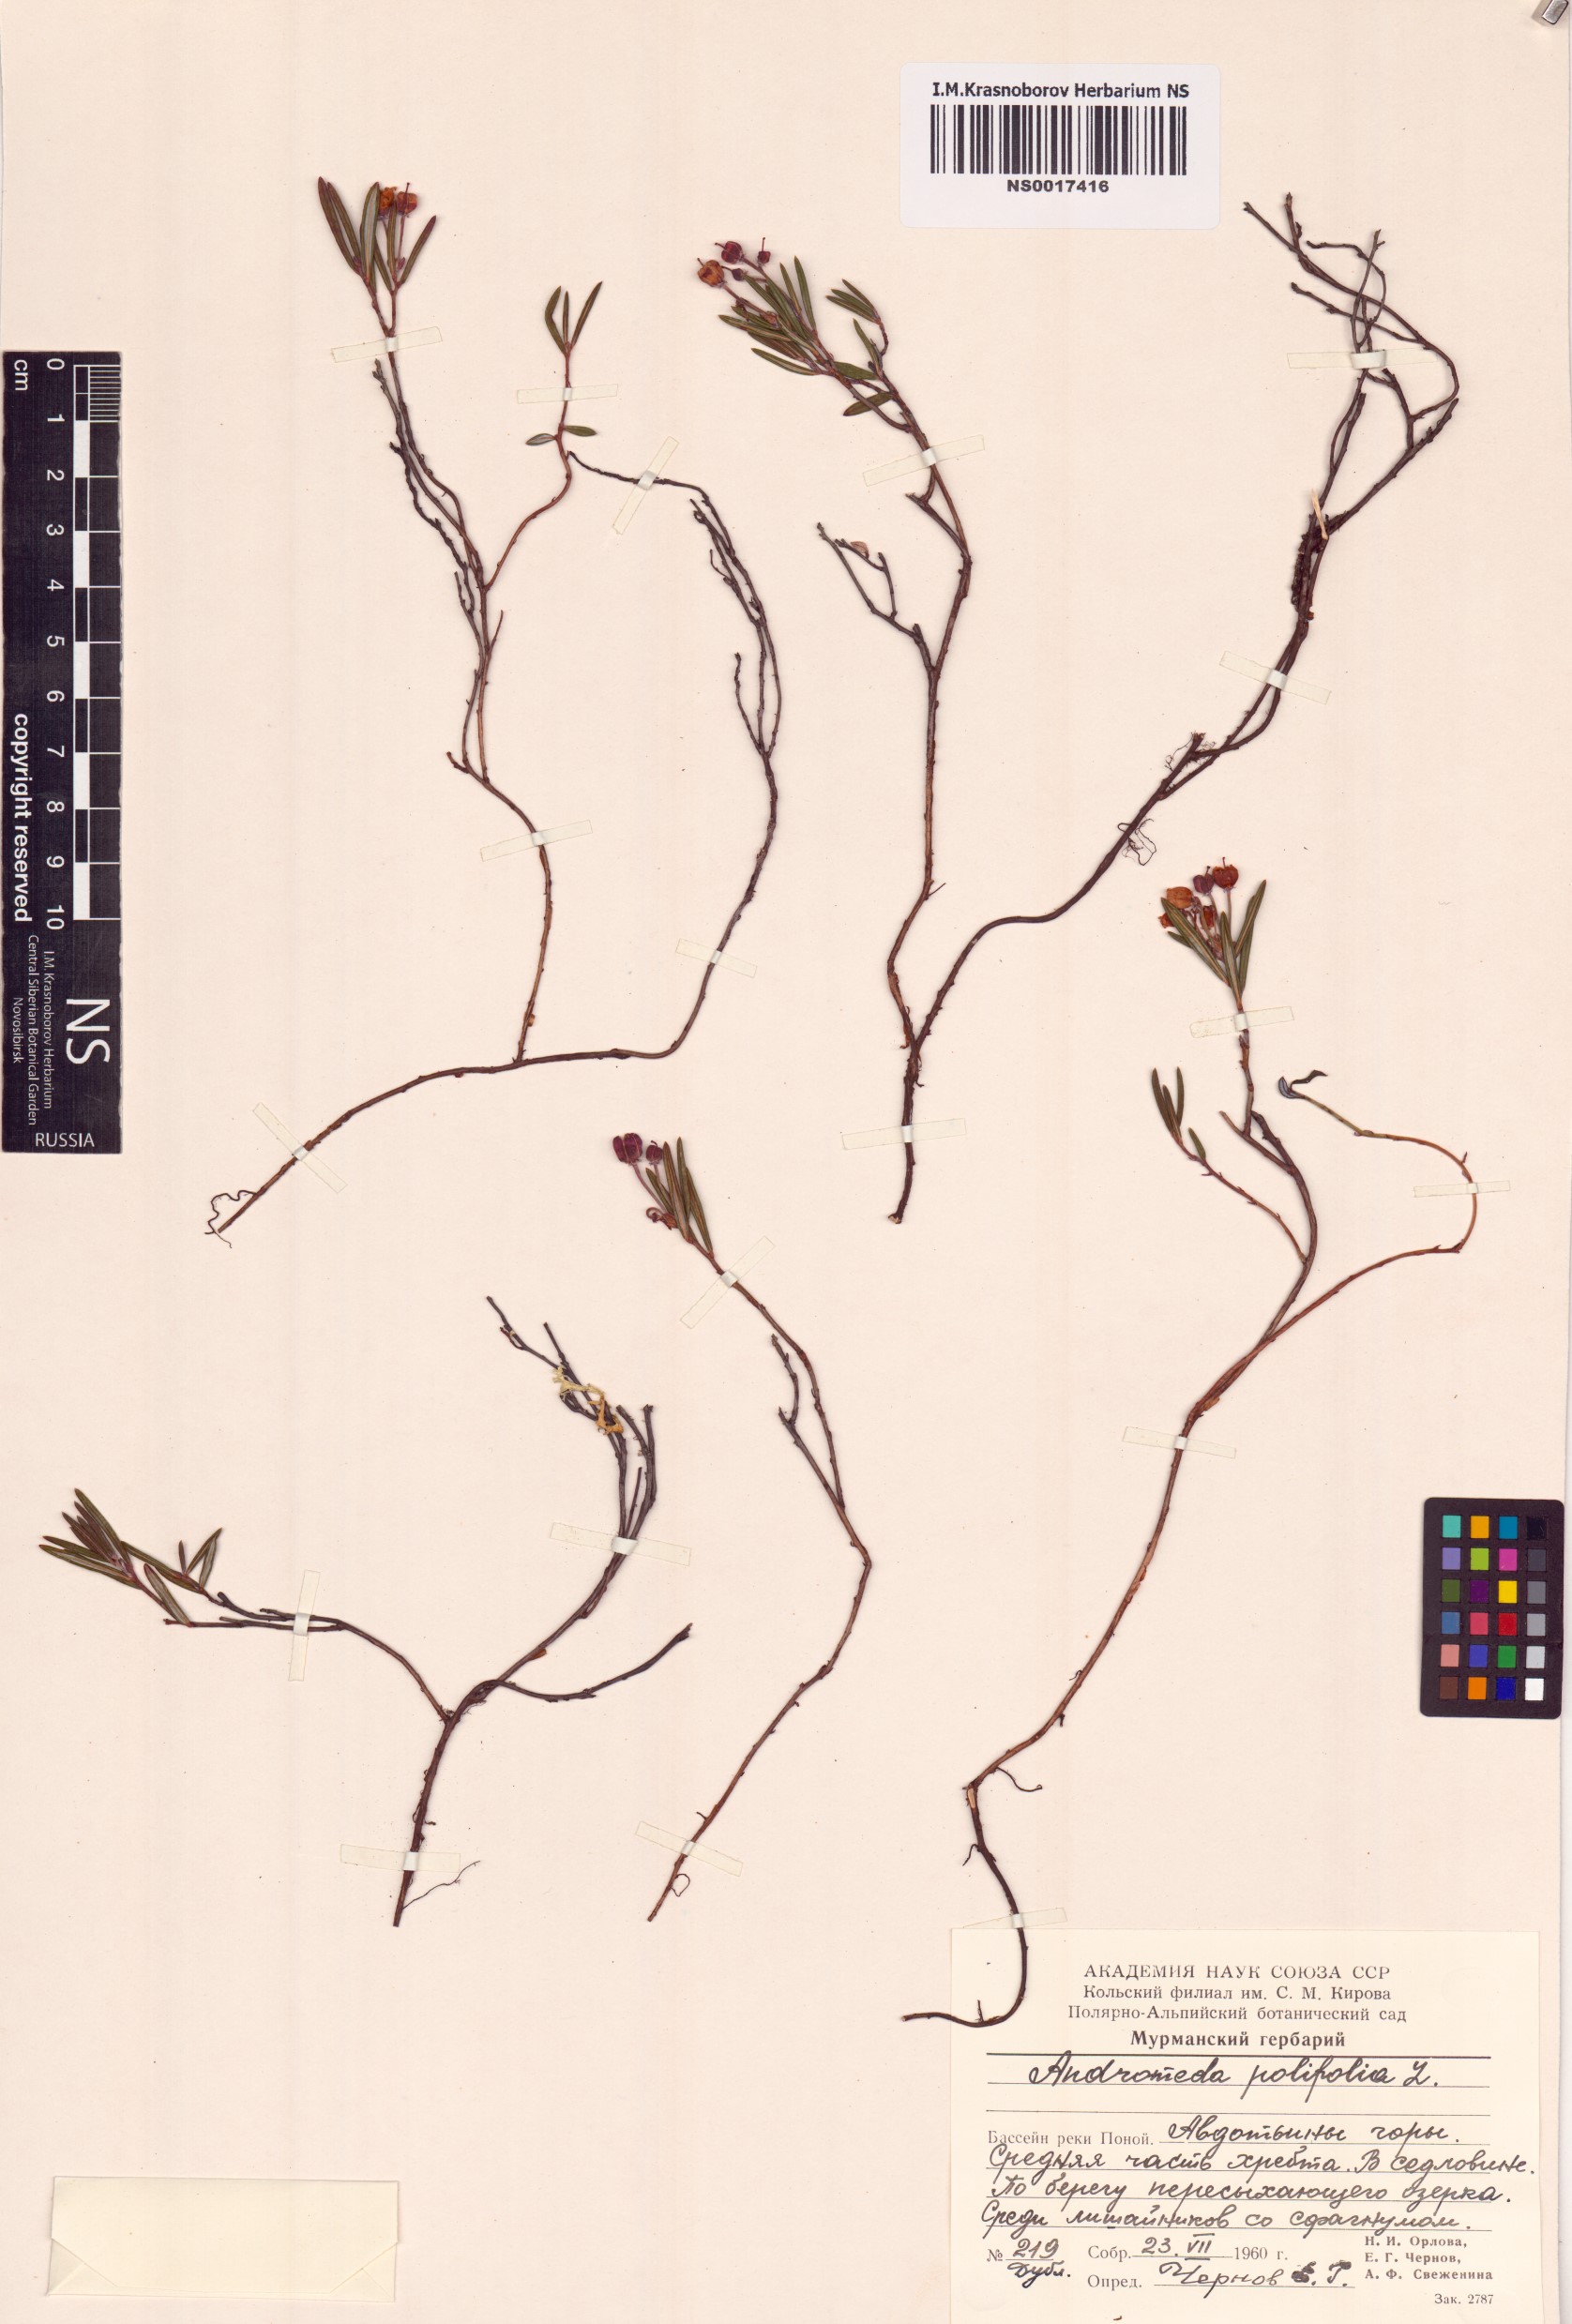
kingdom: Plantae
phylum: Tracheophyta
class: Magnoliopsida
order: Ericales
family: Ericaceae
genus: Andromeda
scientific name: Andromeda polifolia
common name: Bog-rosemary
